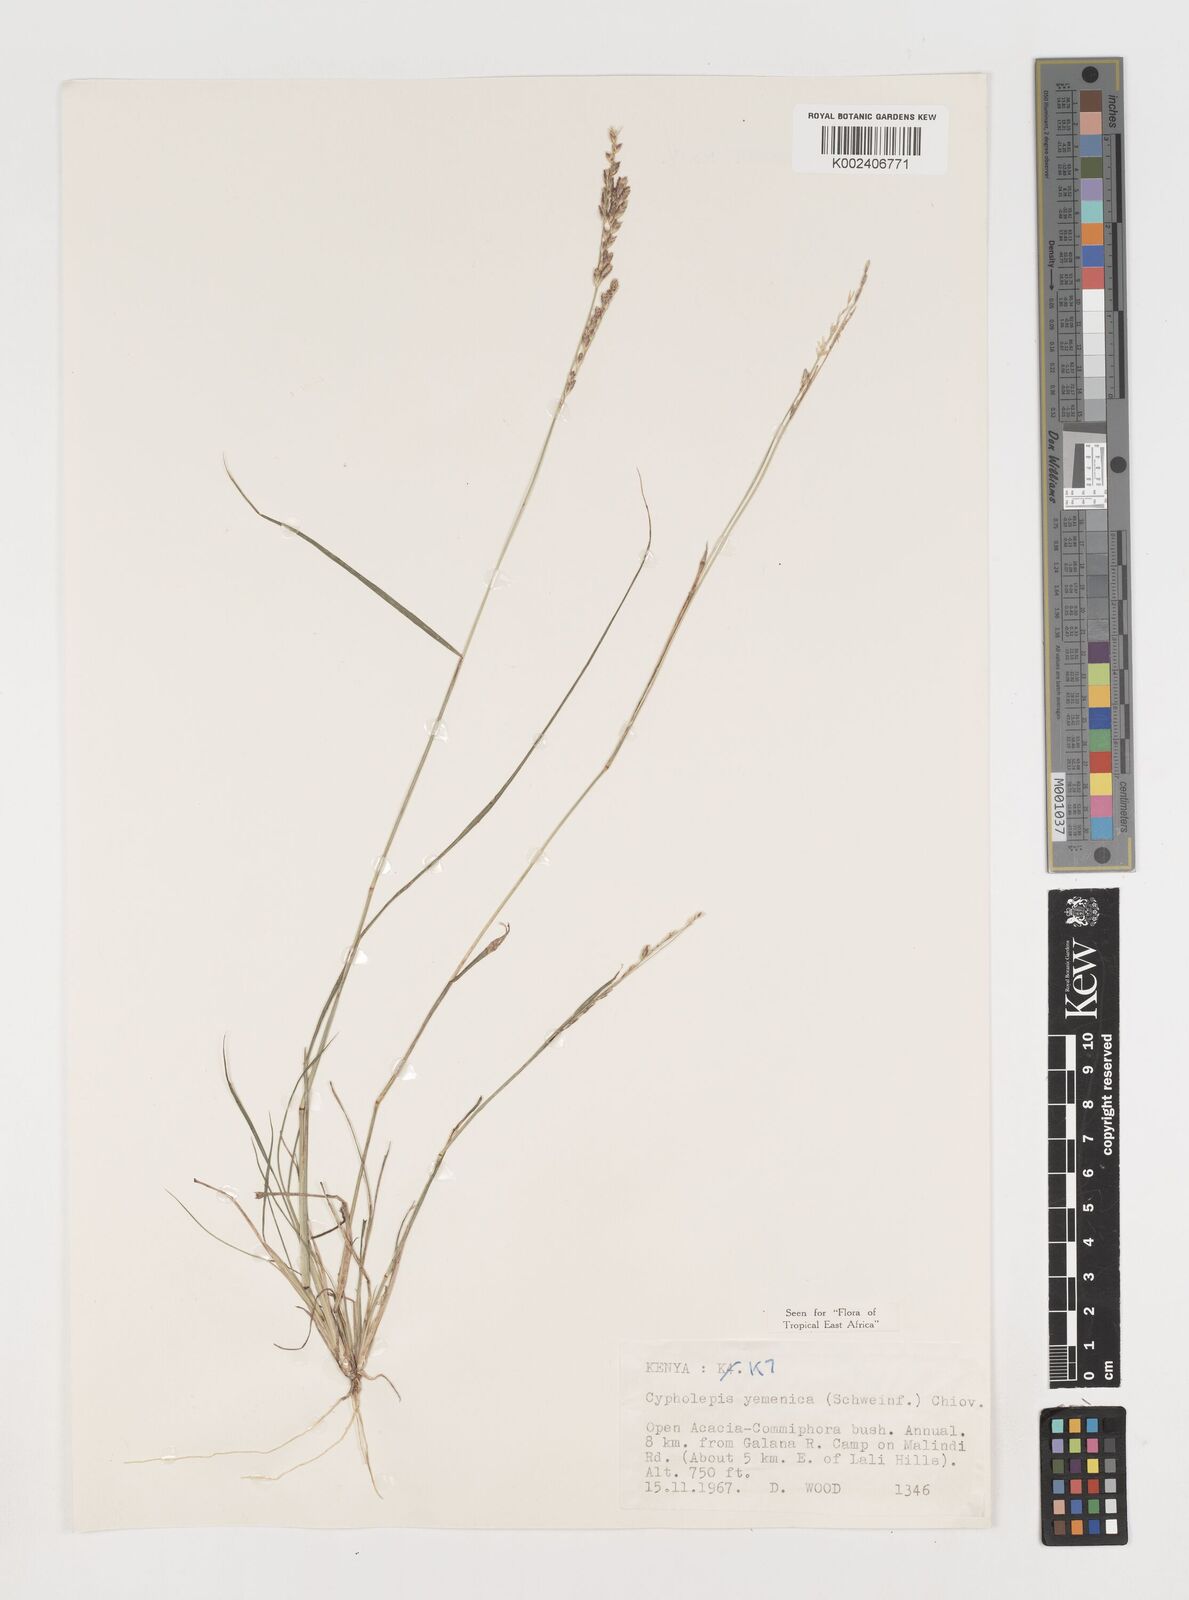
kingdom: Plantae
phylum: Tracheophyta
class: Liliopsida
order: Poales
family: Poaceae
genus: Disakisperma
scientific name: Disakisperma yemenicum
